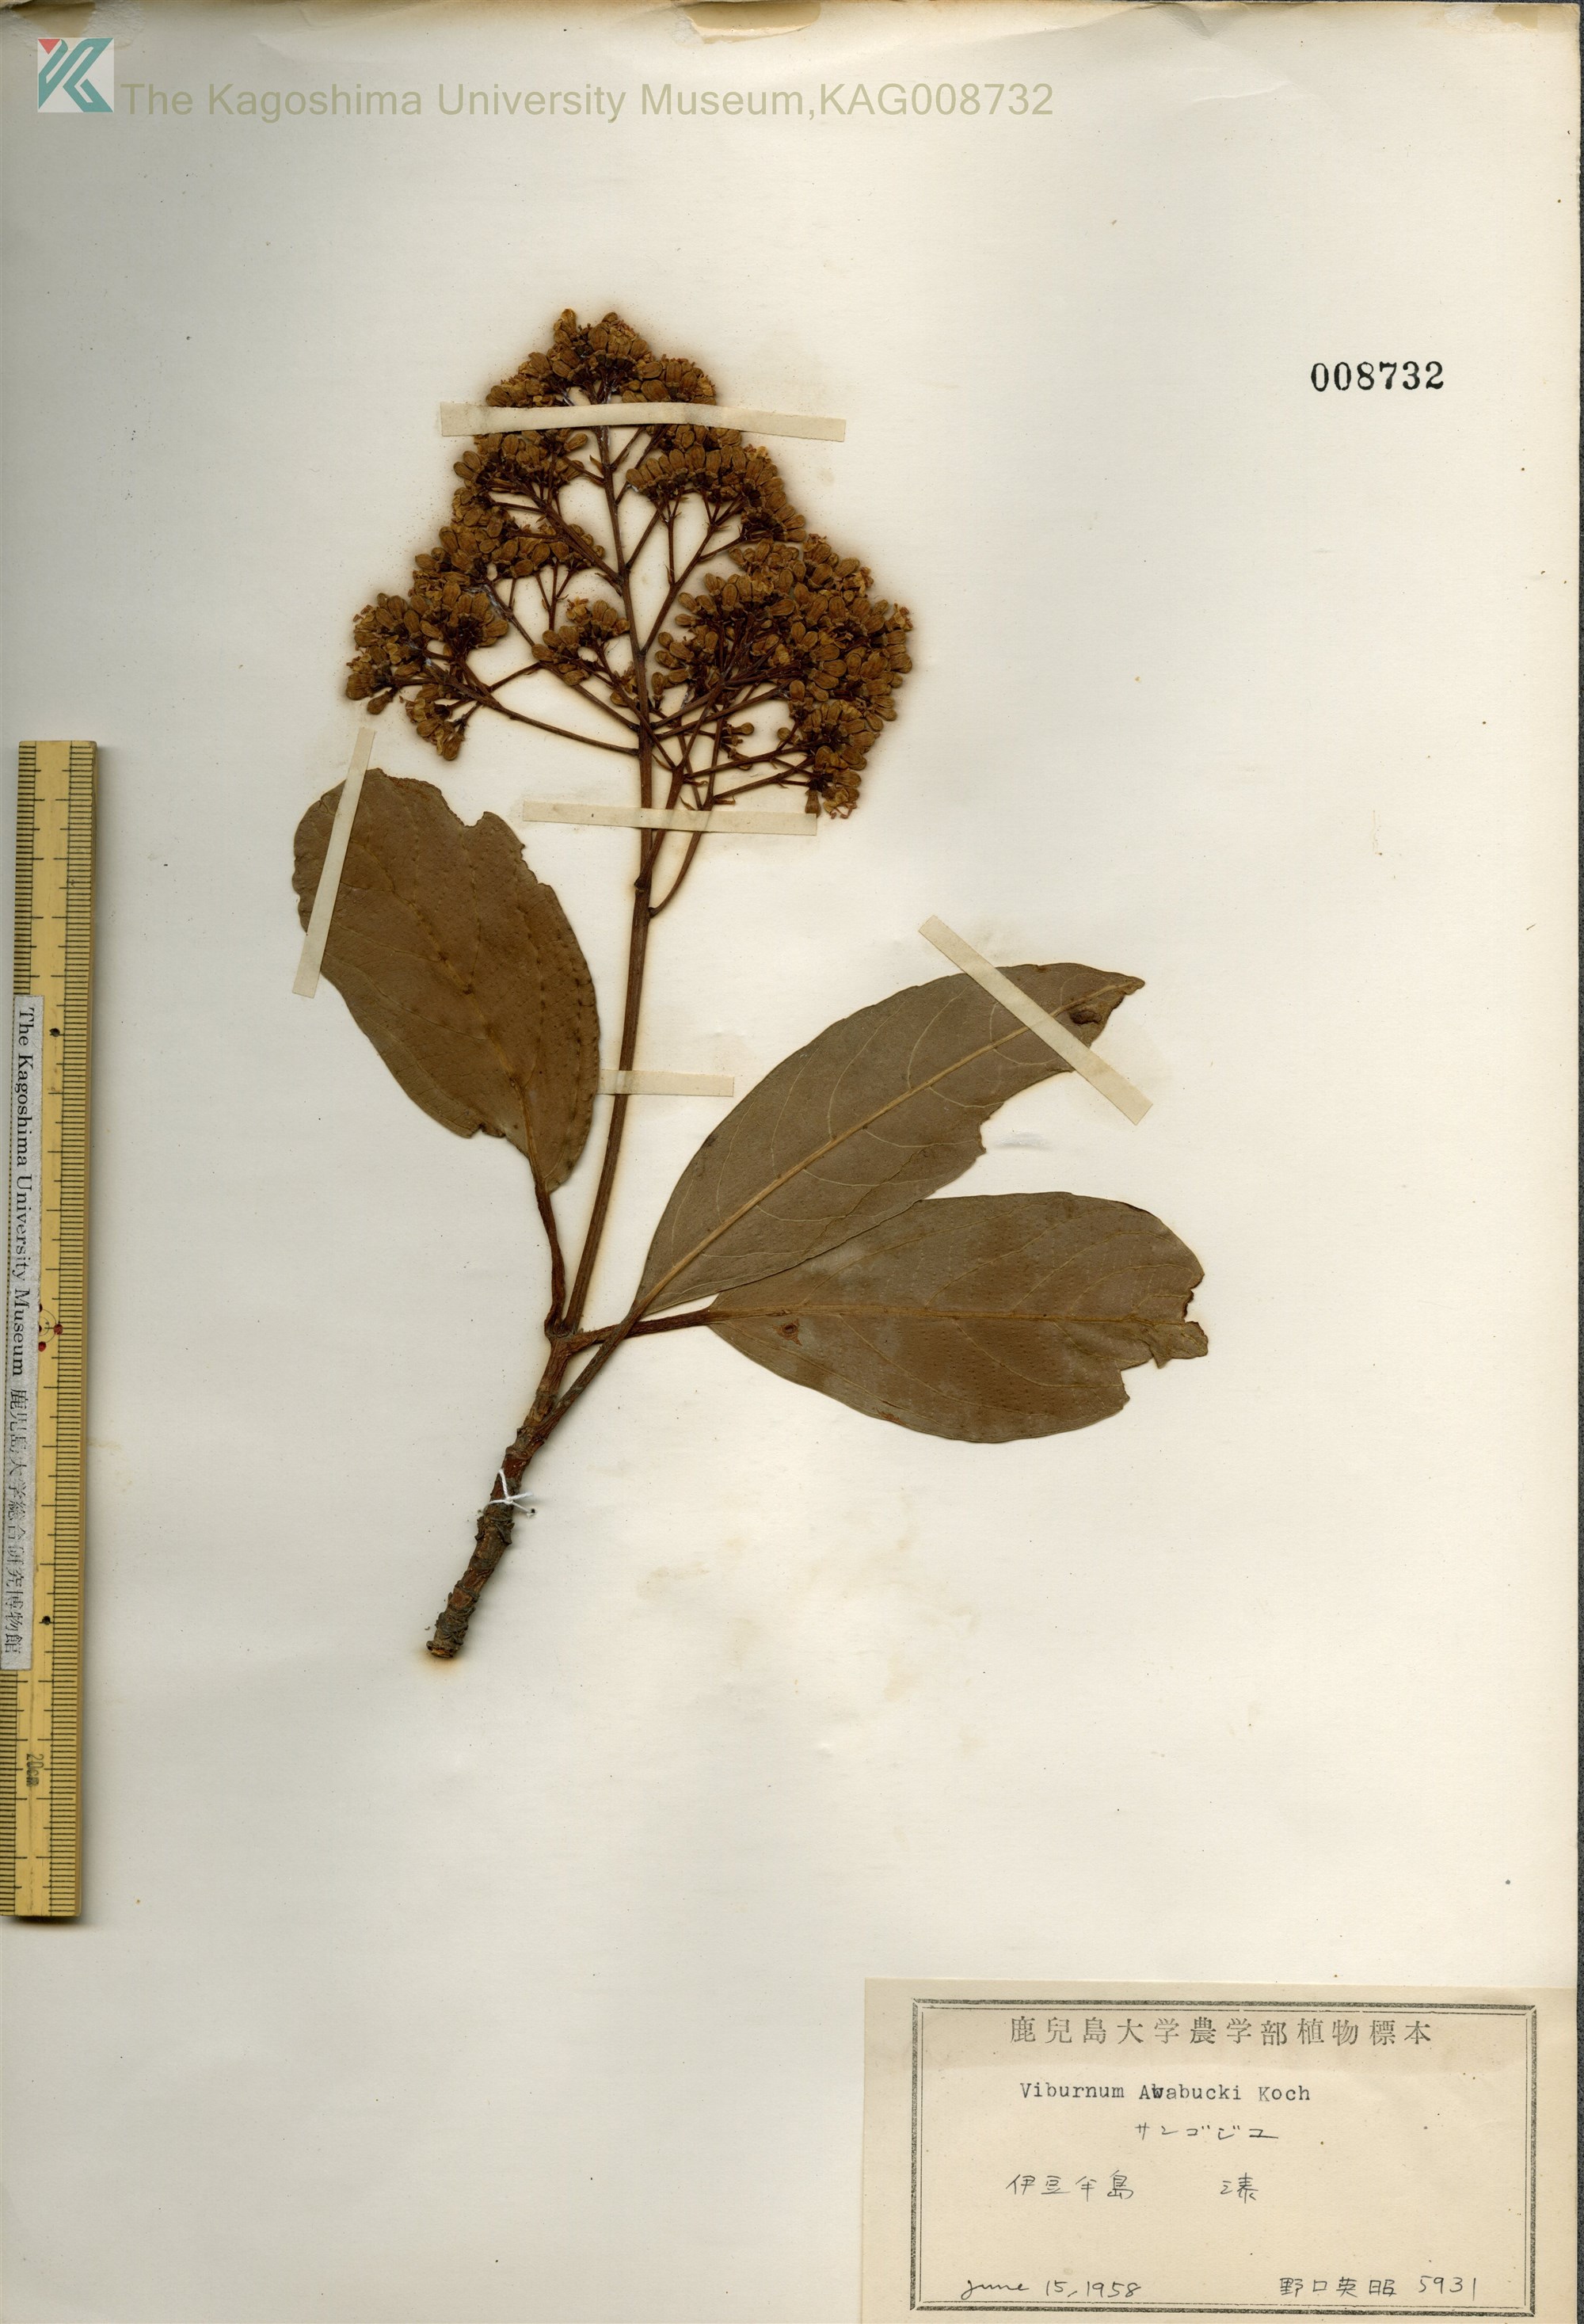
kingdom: Plantae
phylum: Tracheophyta
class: Magnoliopsida
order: Dipsacales
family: Viburnaceae
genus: Viburnum
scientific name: Viburnum odoratissimum
